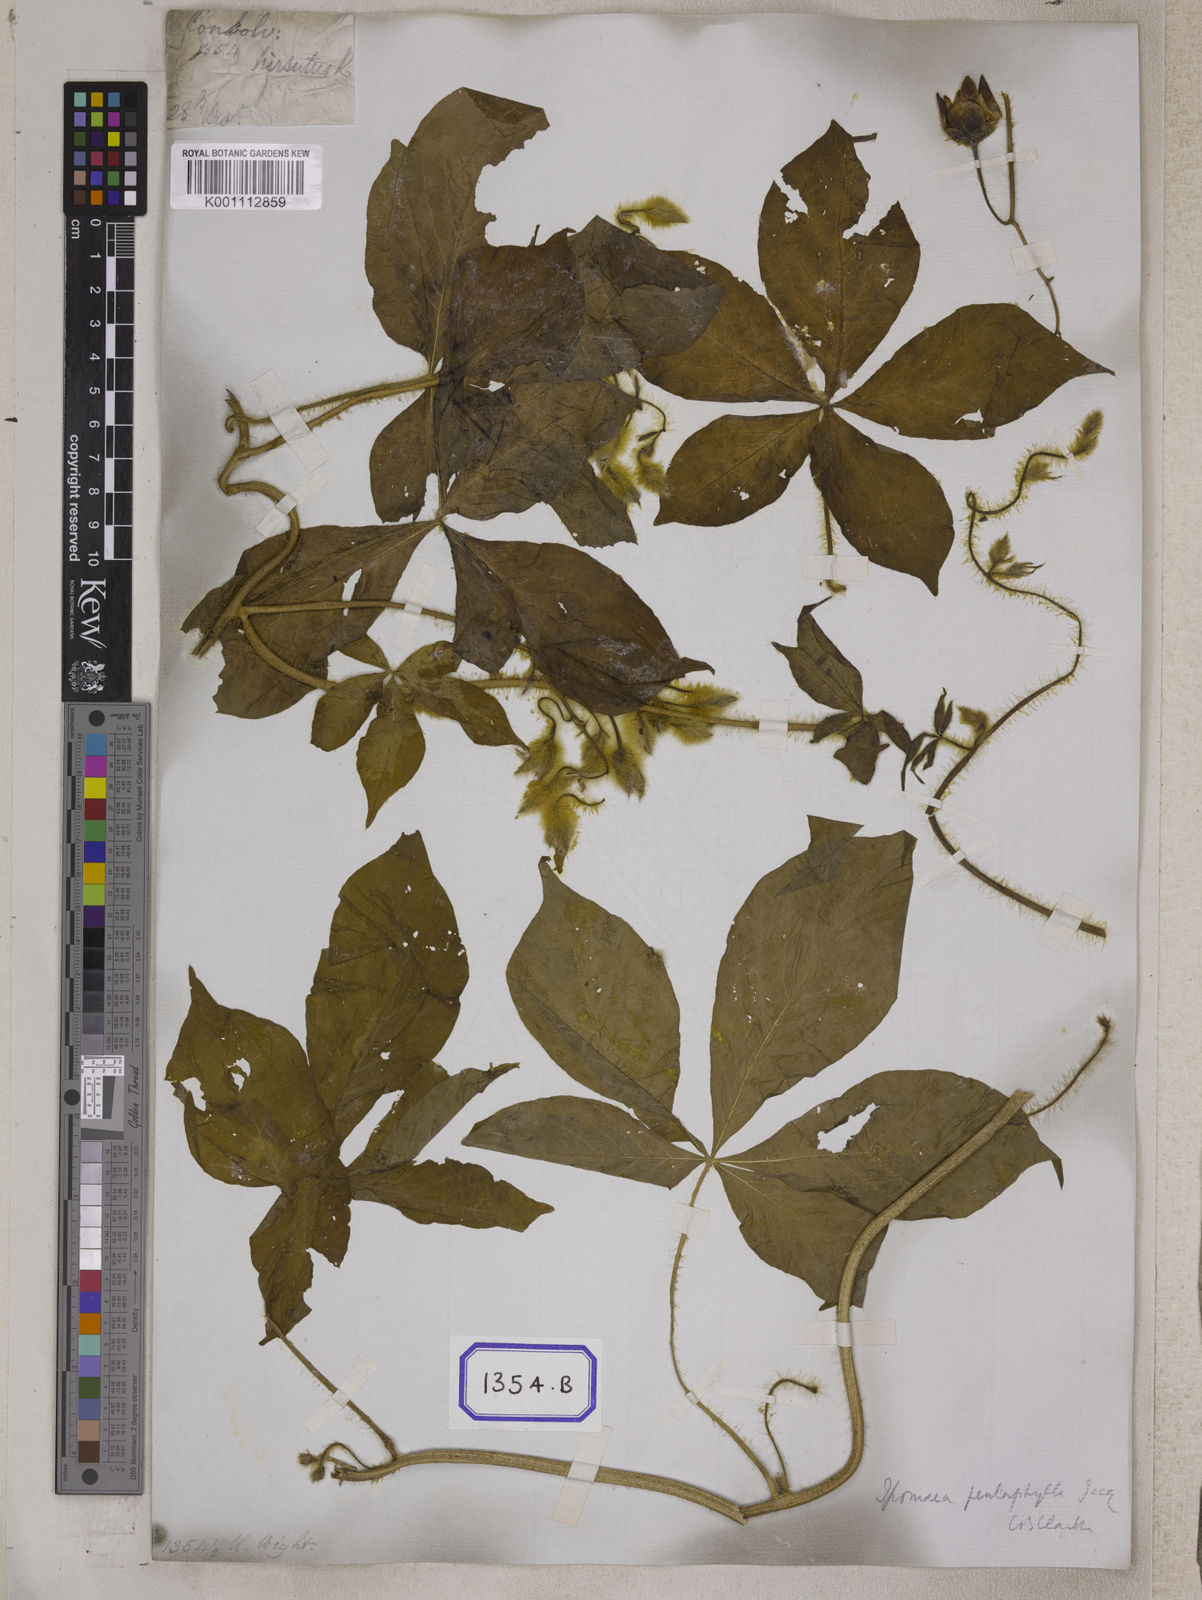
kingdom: Plantae
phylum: Tracheophyta
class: Magnoliopsida
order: Solanales
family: Convolvulaceae
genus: Convolvulus
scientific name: Convolvulus
